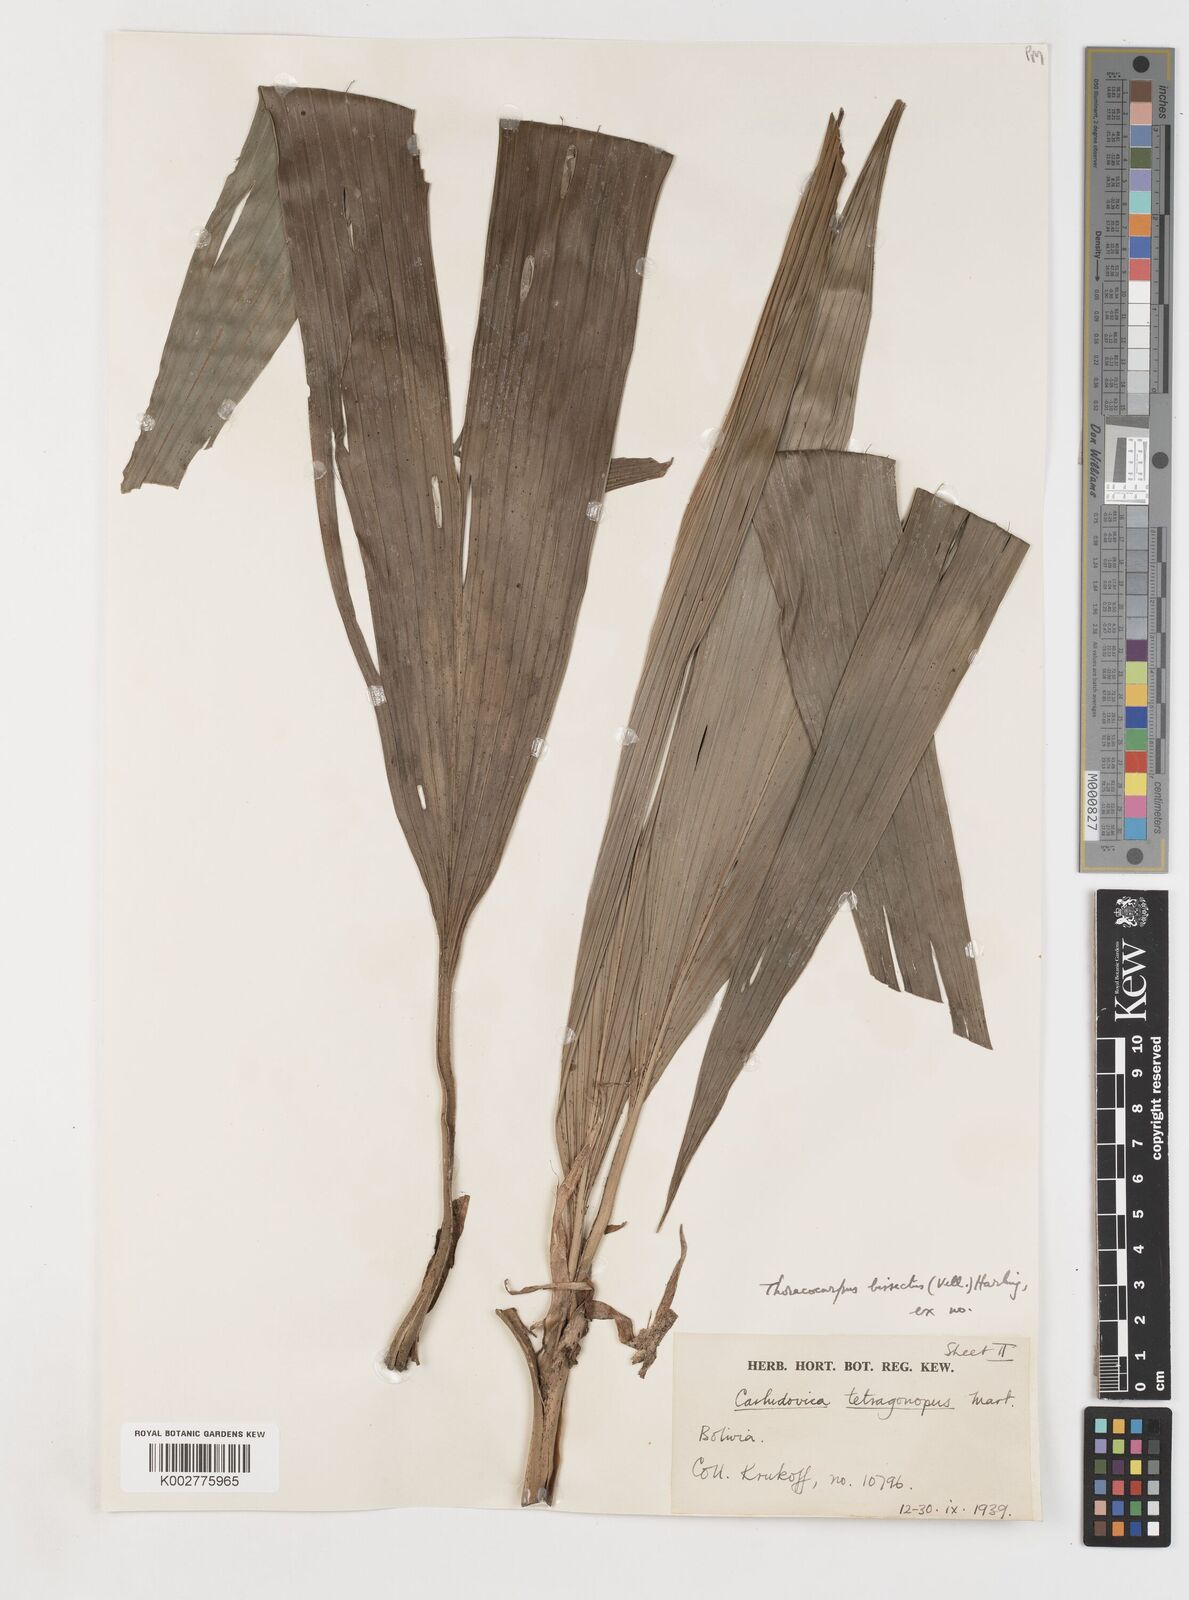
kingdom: Plantae
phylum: Tracheophyta
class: Liliopsida
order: Pandanales
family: Cyclanthaceae
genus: Thoracocarpus
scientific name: Thoracocarpus bissectus
